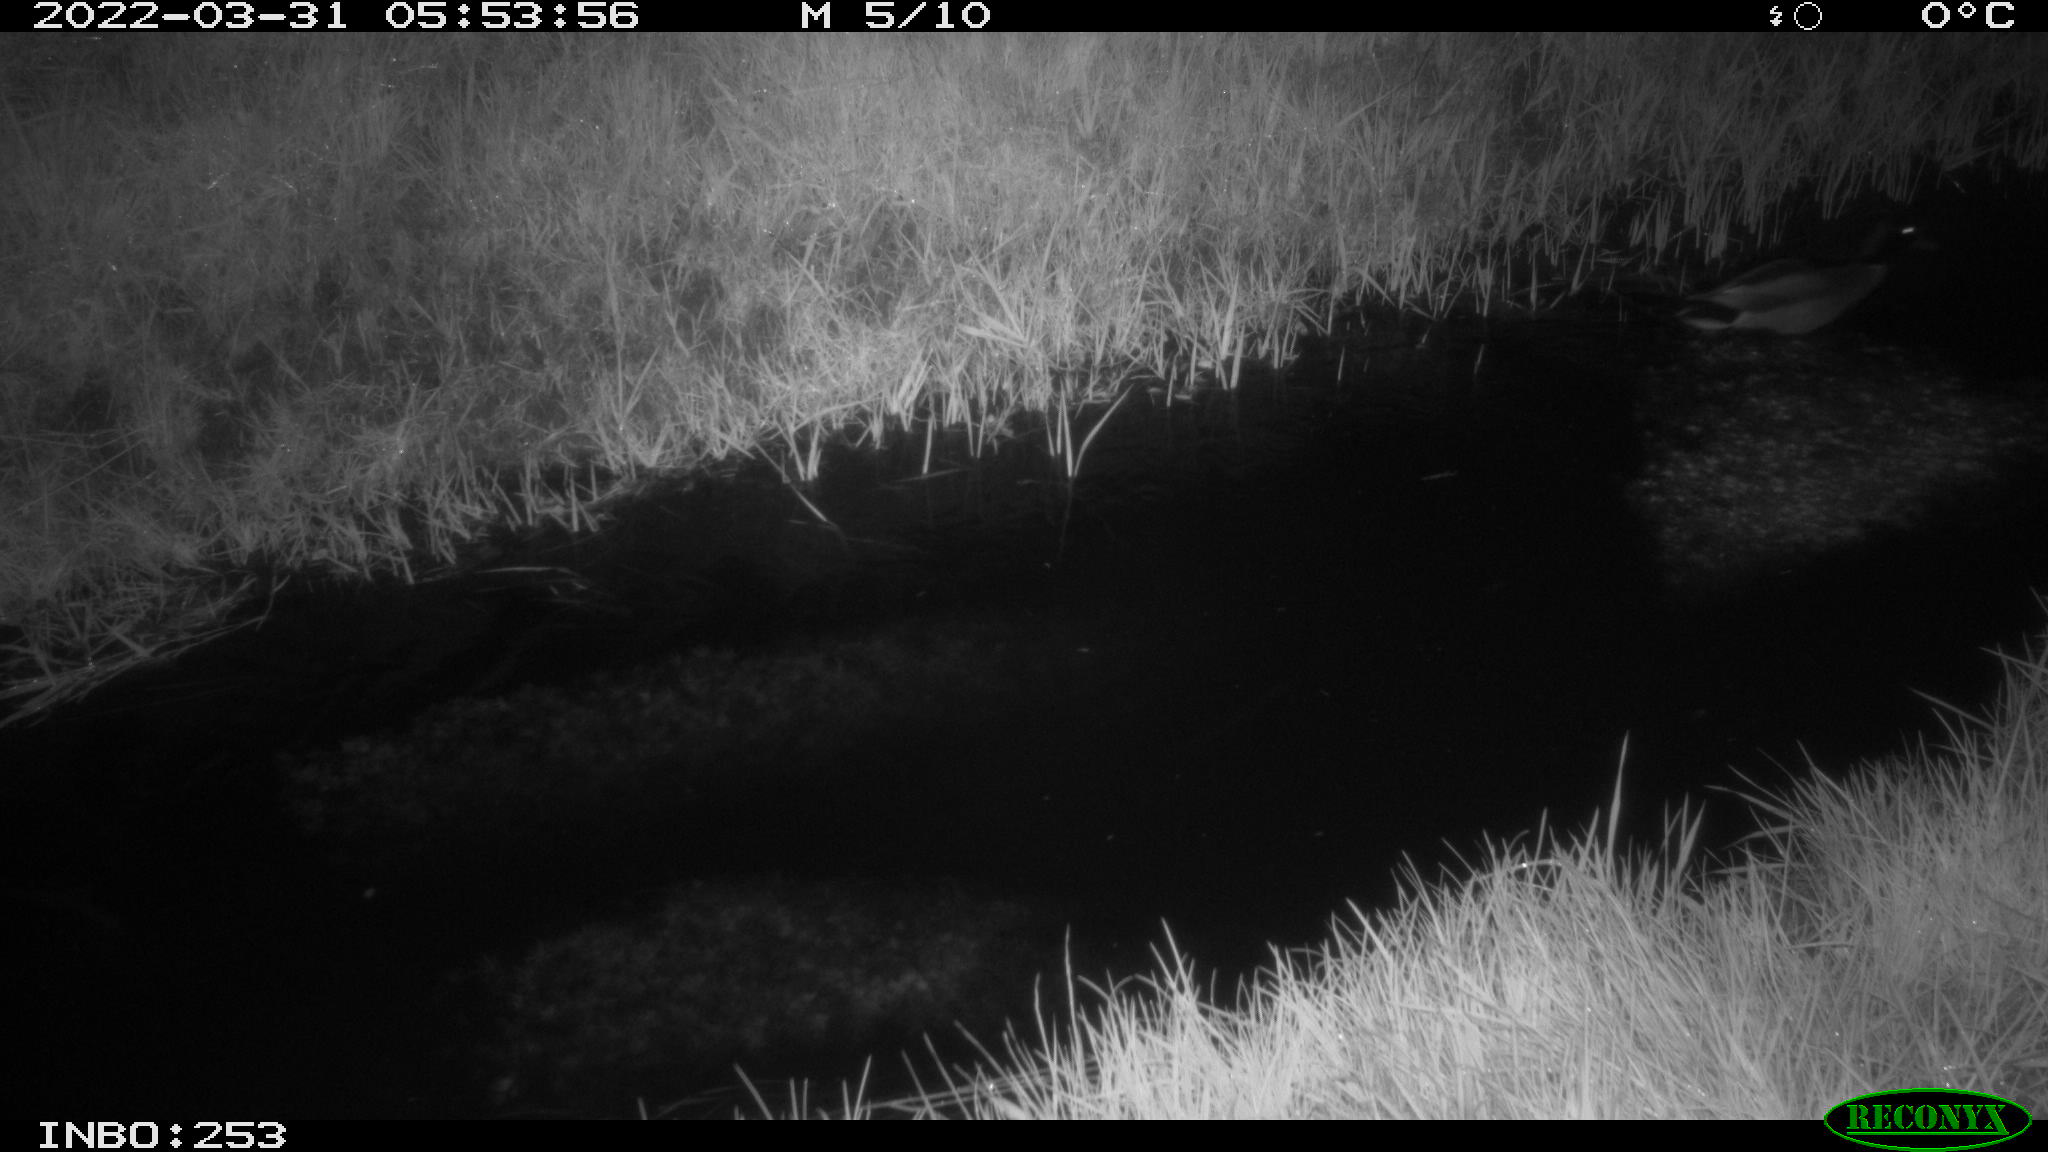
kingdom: Animalia
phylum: Chordata
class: Aves
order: Anseriformes
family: Anatidae
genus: Anas
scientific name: Anas platyrhynchos
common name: Mallard
